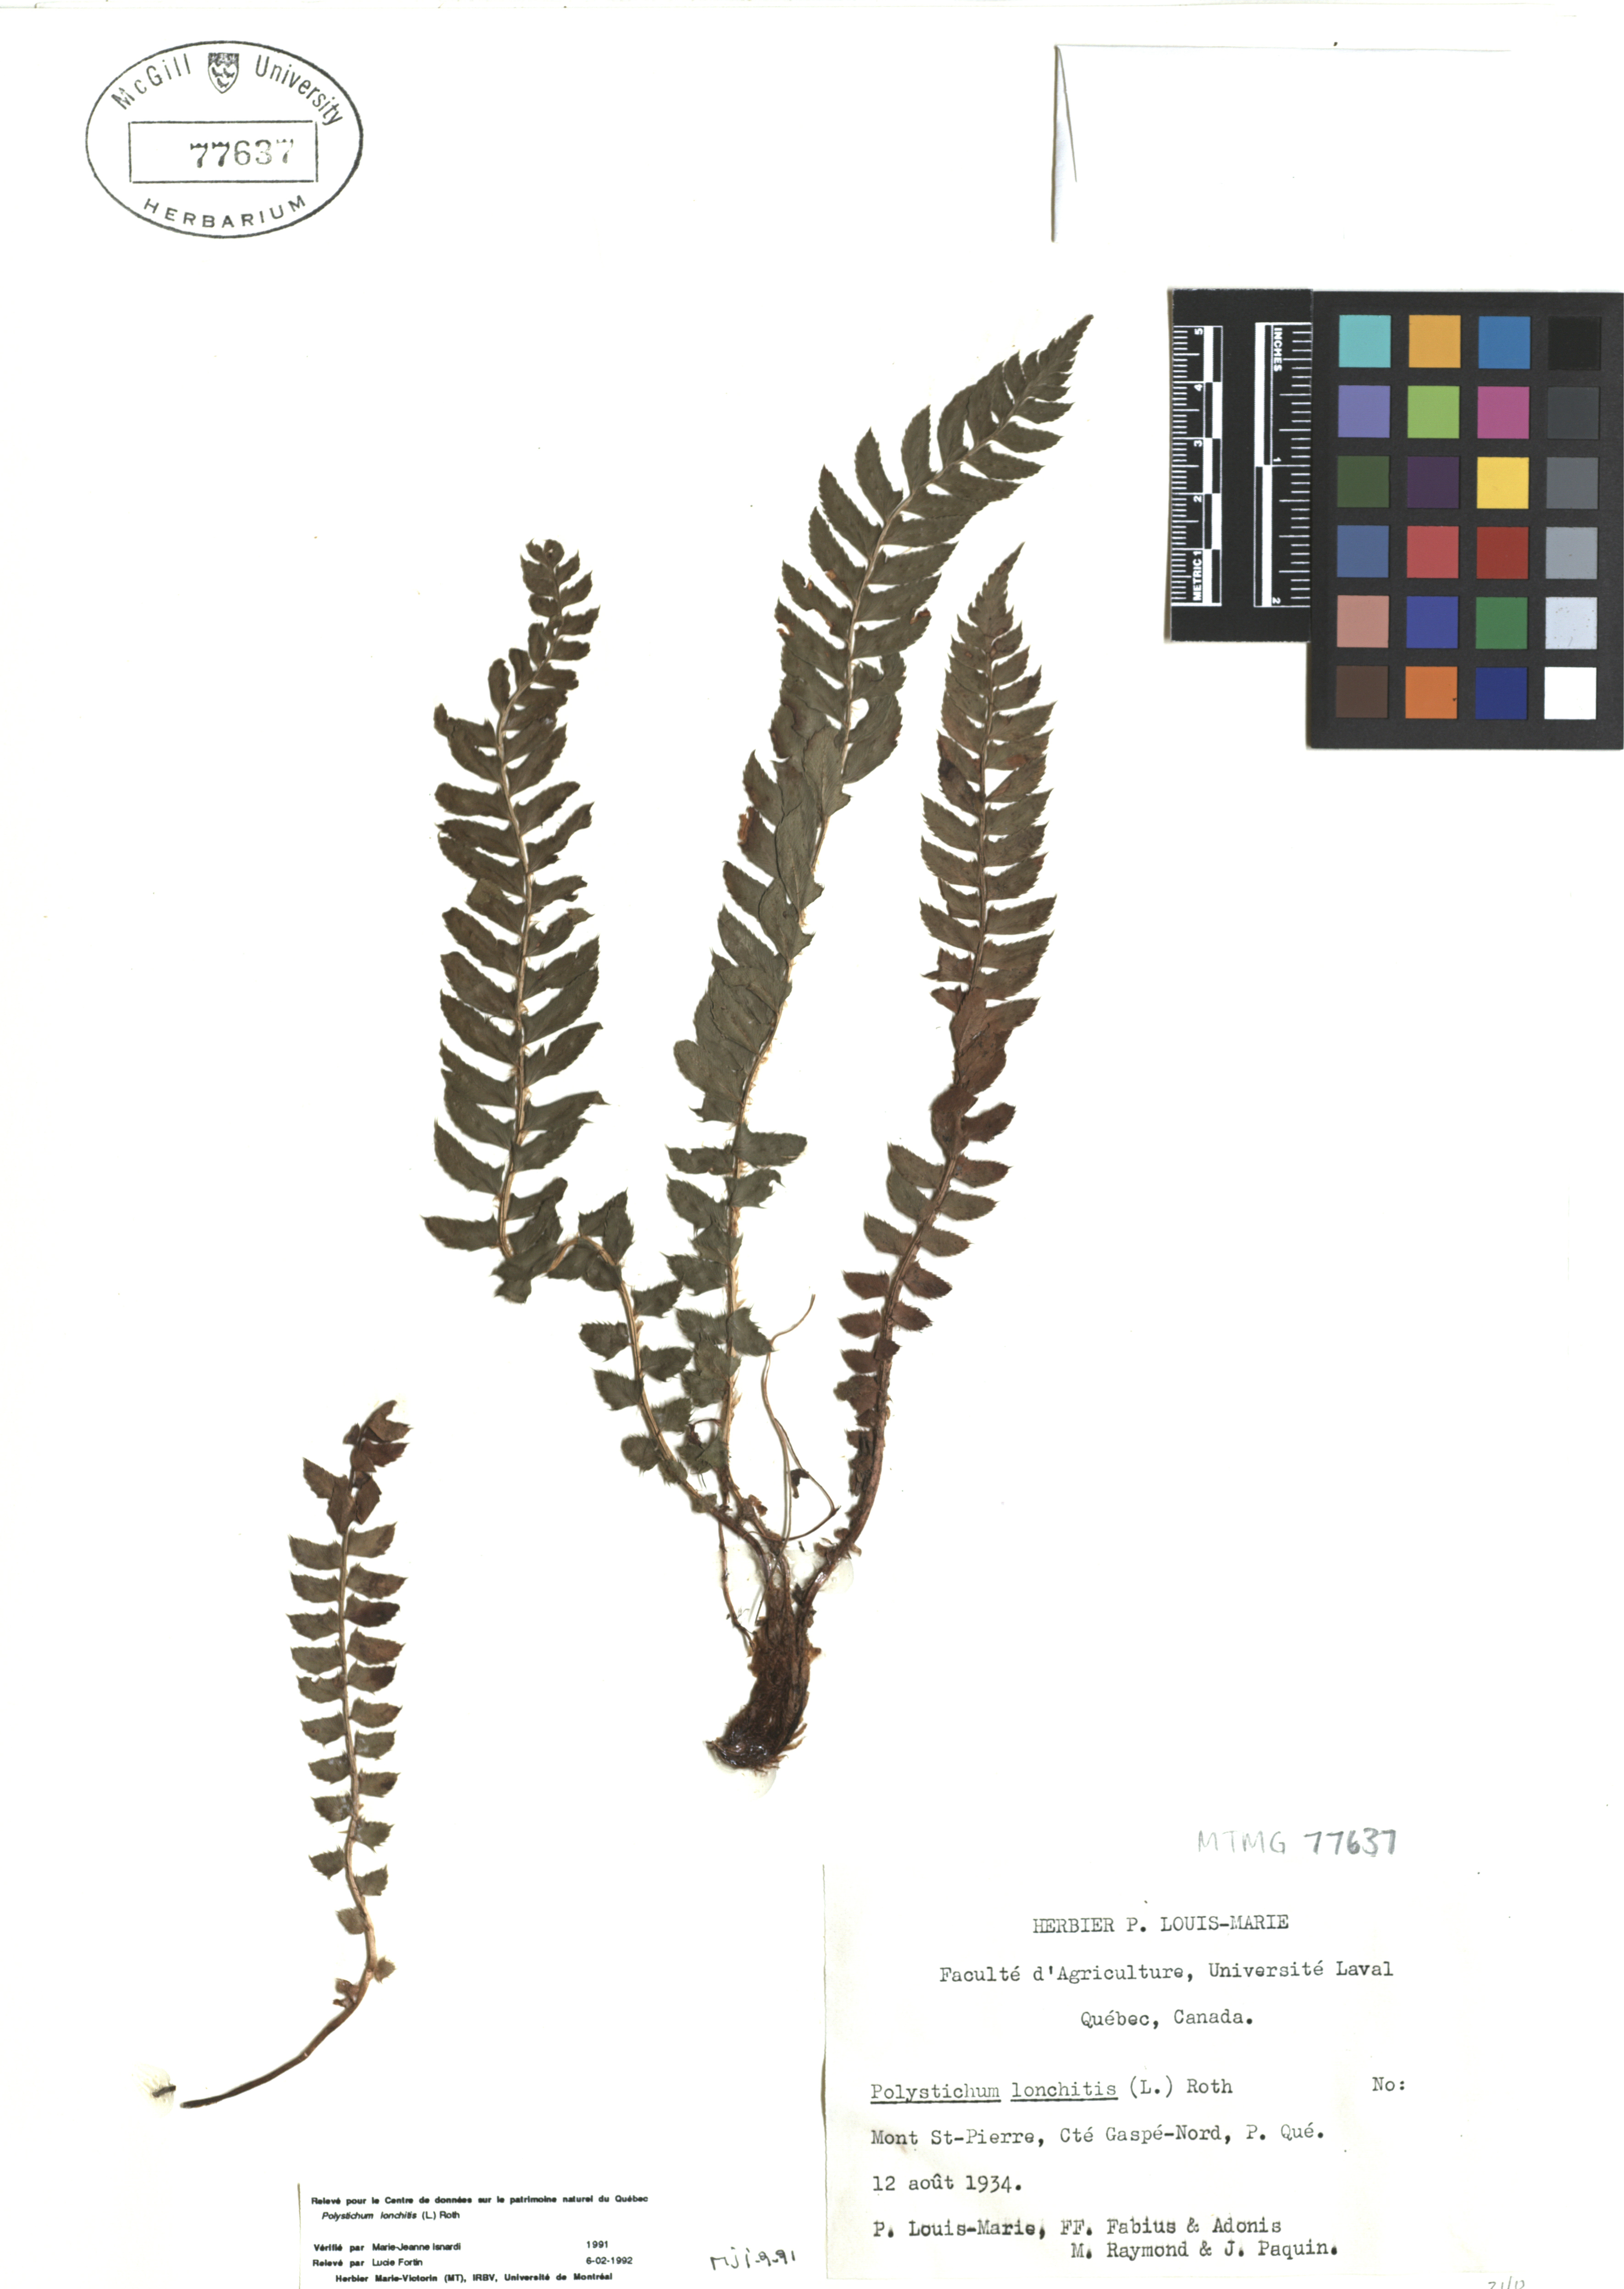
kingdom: Plantae
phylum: Tracheophyta
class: Polypodiopsida
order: Polypodiales
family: Dryopteridaceae
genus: Polystichum
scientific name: Polystichum lonchitis
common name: Holly fern
